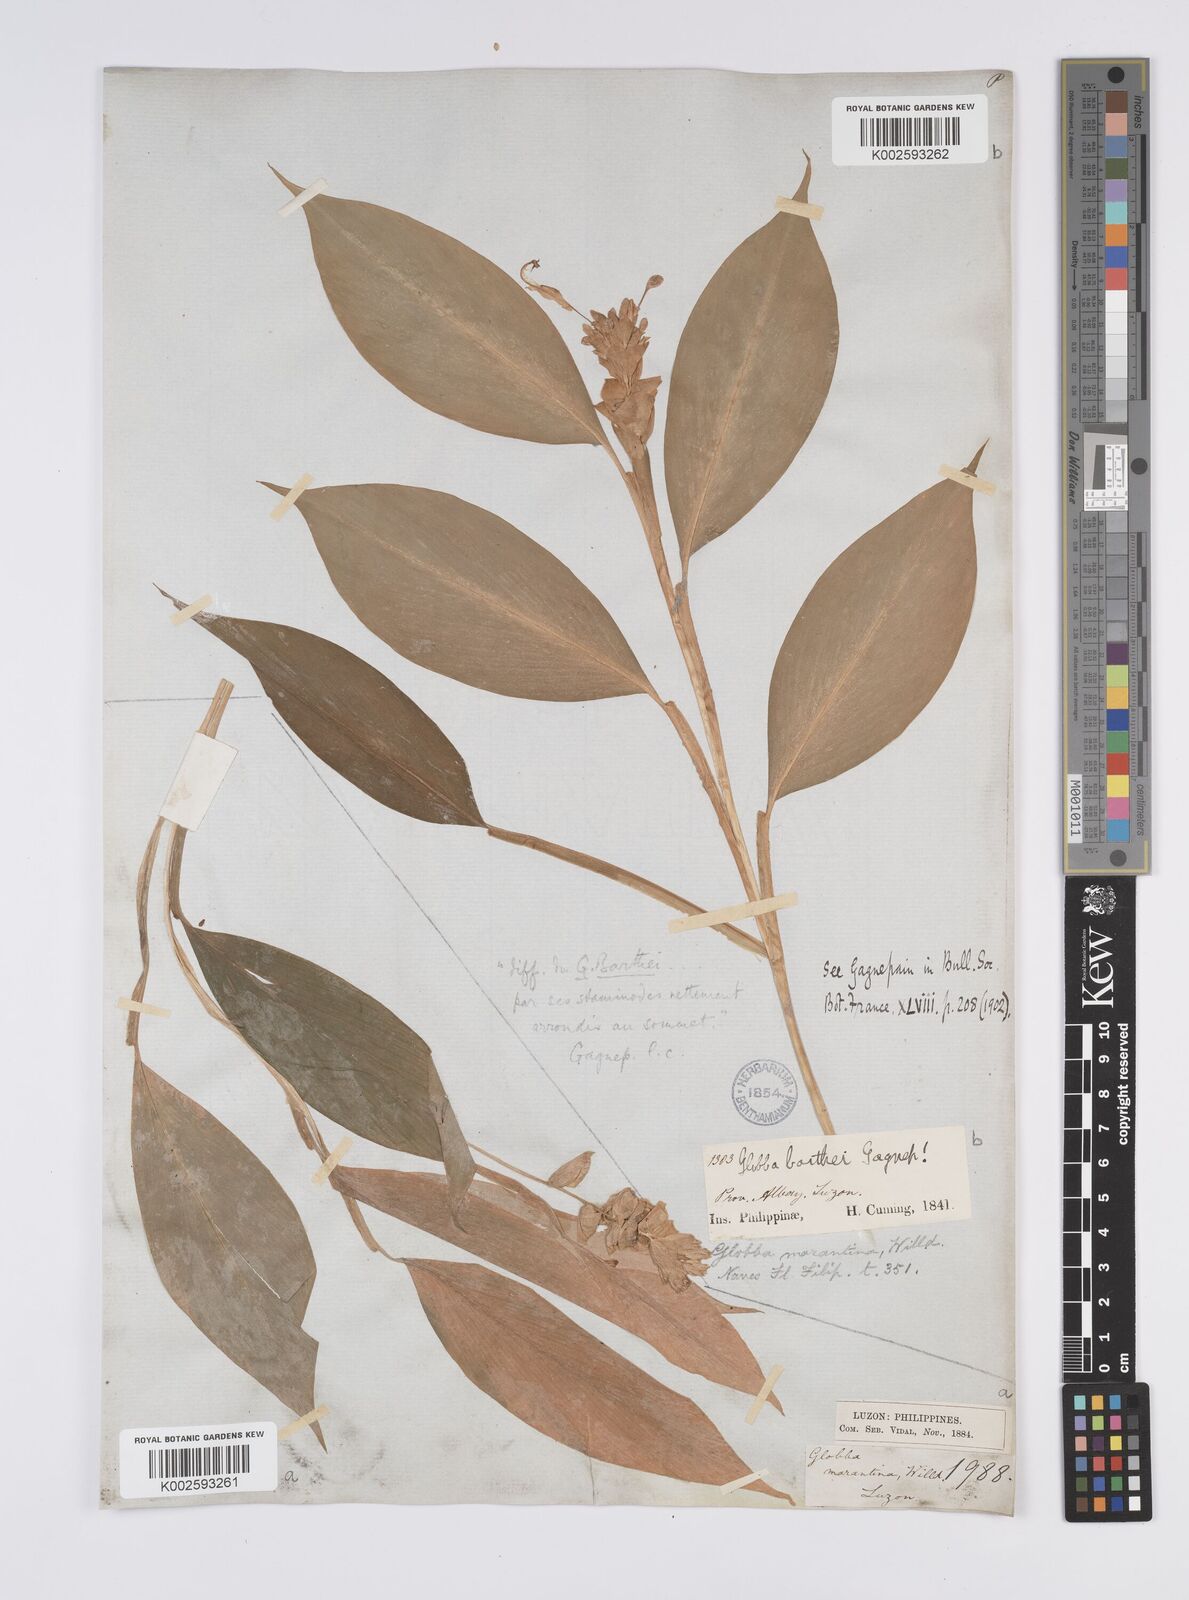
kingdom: Plantae
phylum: Tracheophyta
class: Liliopsida
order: Zingiberales
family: Zingiberaceae
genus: Globba
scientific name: Globba marantina
